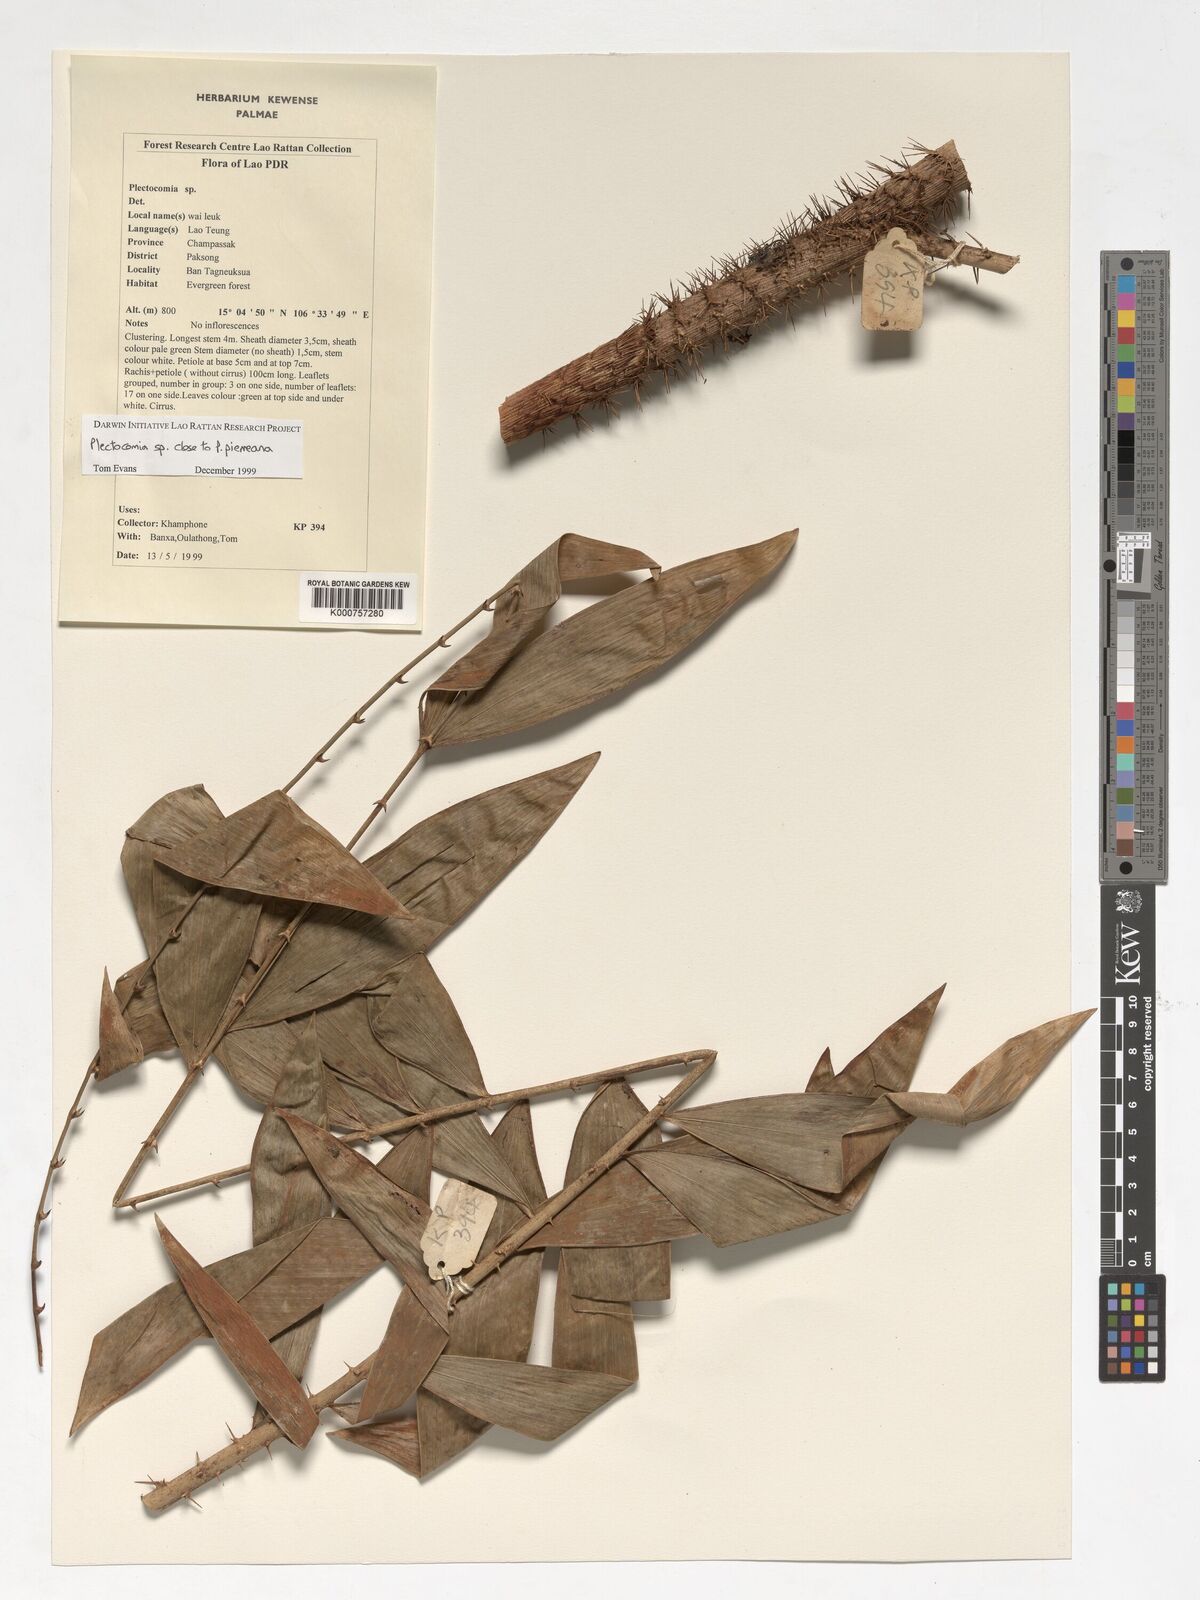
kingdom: Plantae
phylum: Tracheophyta
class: Liliopsida
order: Arecales
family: Arecaceae
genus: Plectocomia
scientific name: Plectocomia pierreana
